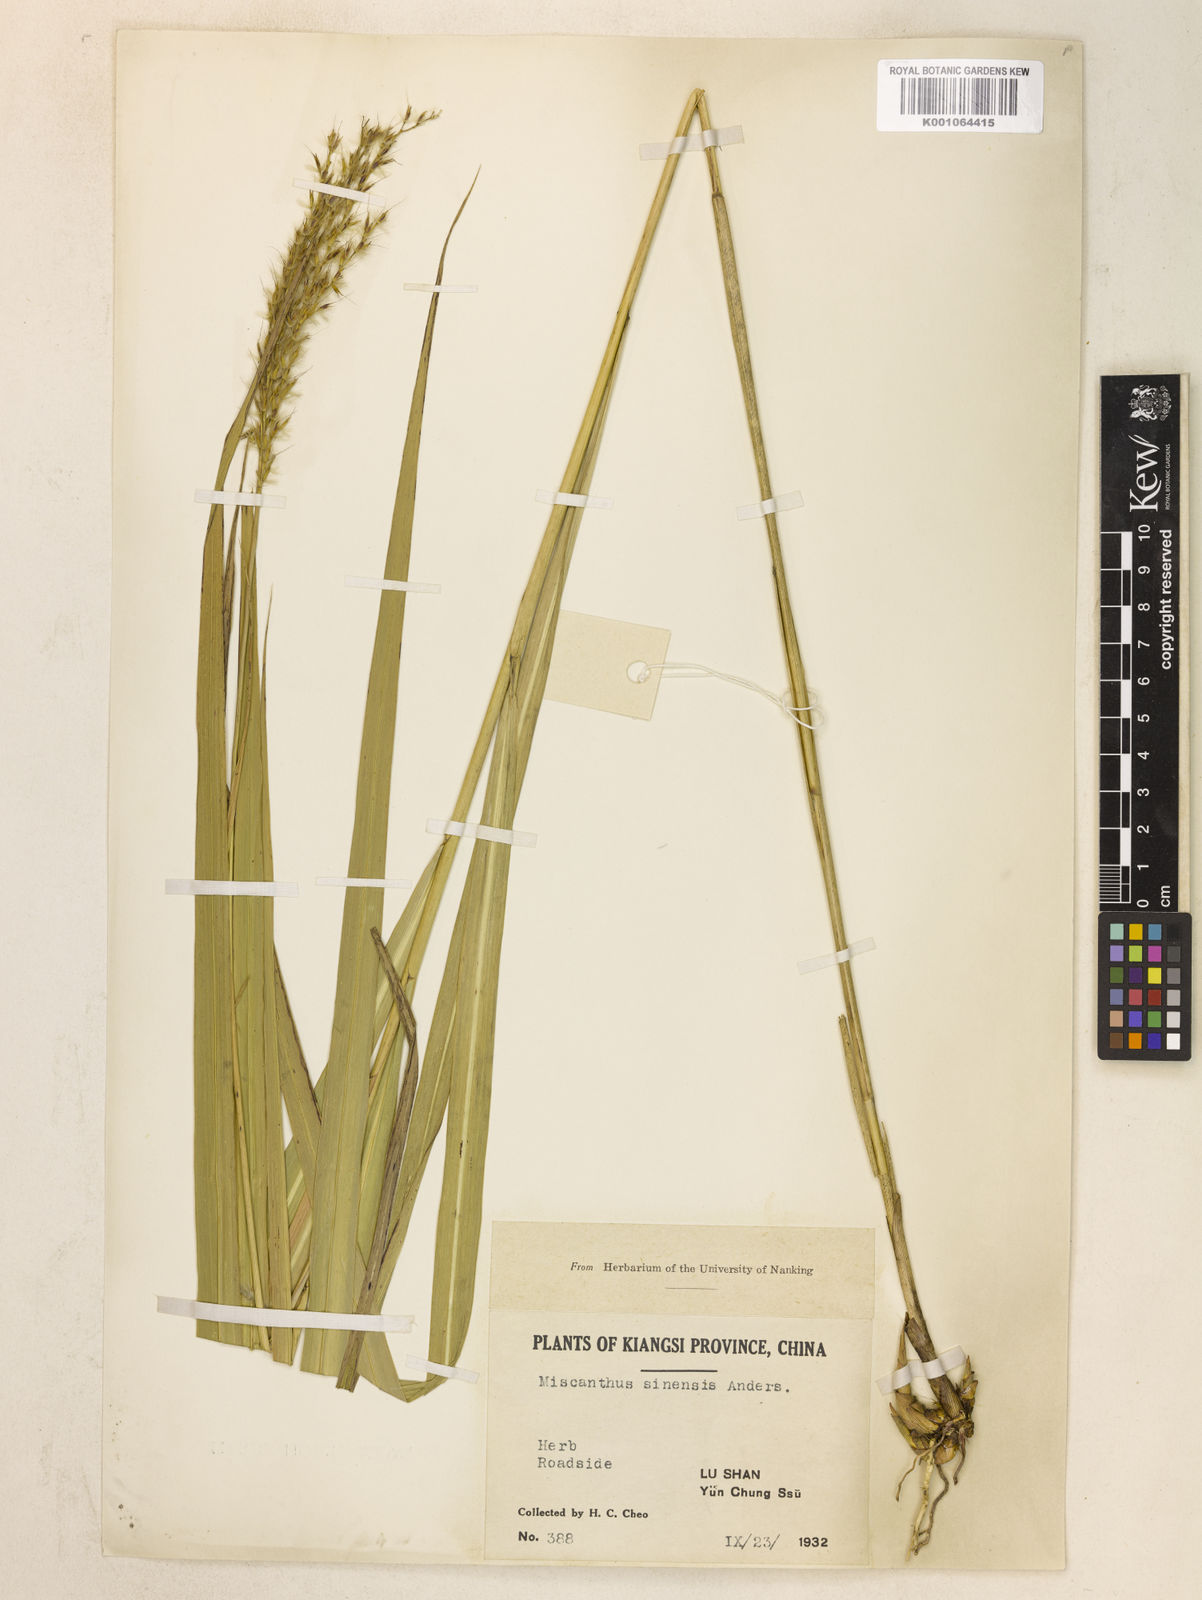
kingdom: Plantae
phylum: Tracheophyta
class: Liliopsida
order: Poales
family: Poaceae
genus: Miscanthus
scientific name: Miscanthus sinensis
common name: Chinese silvergrass
